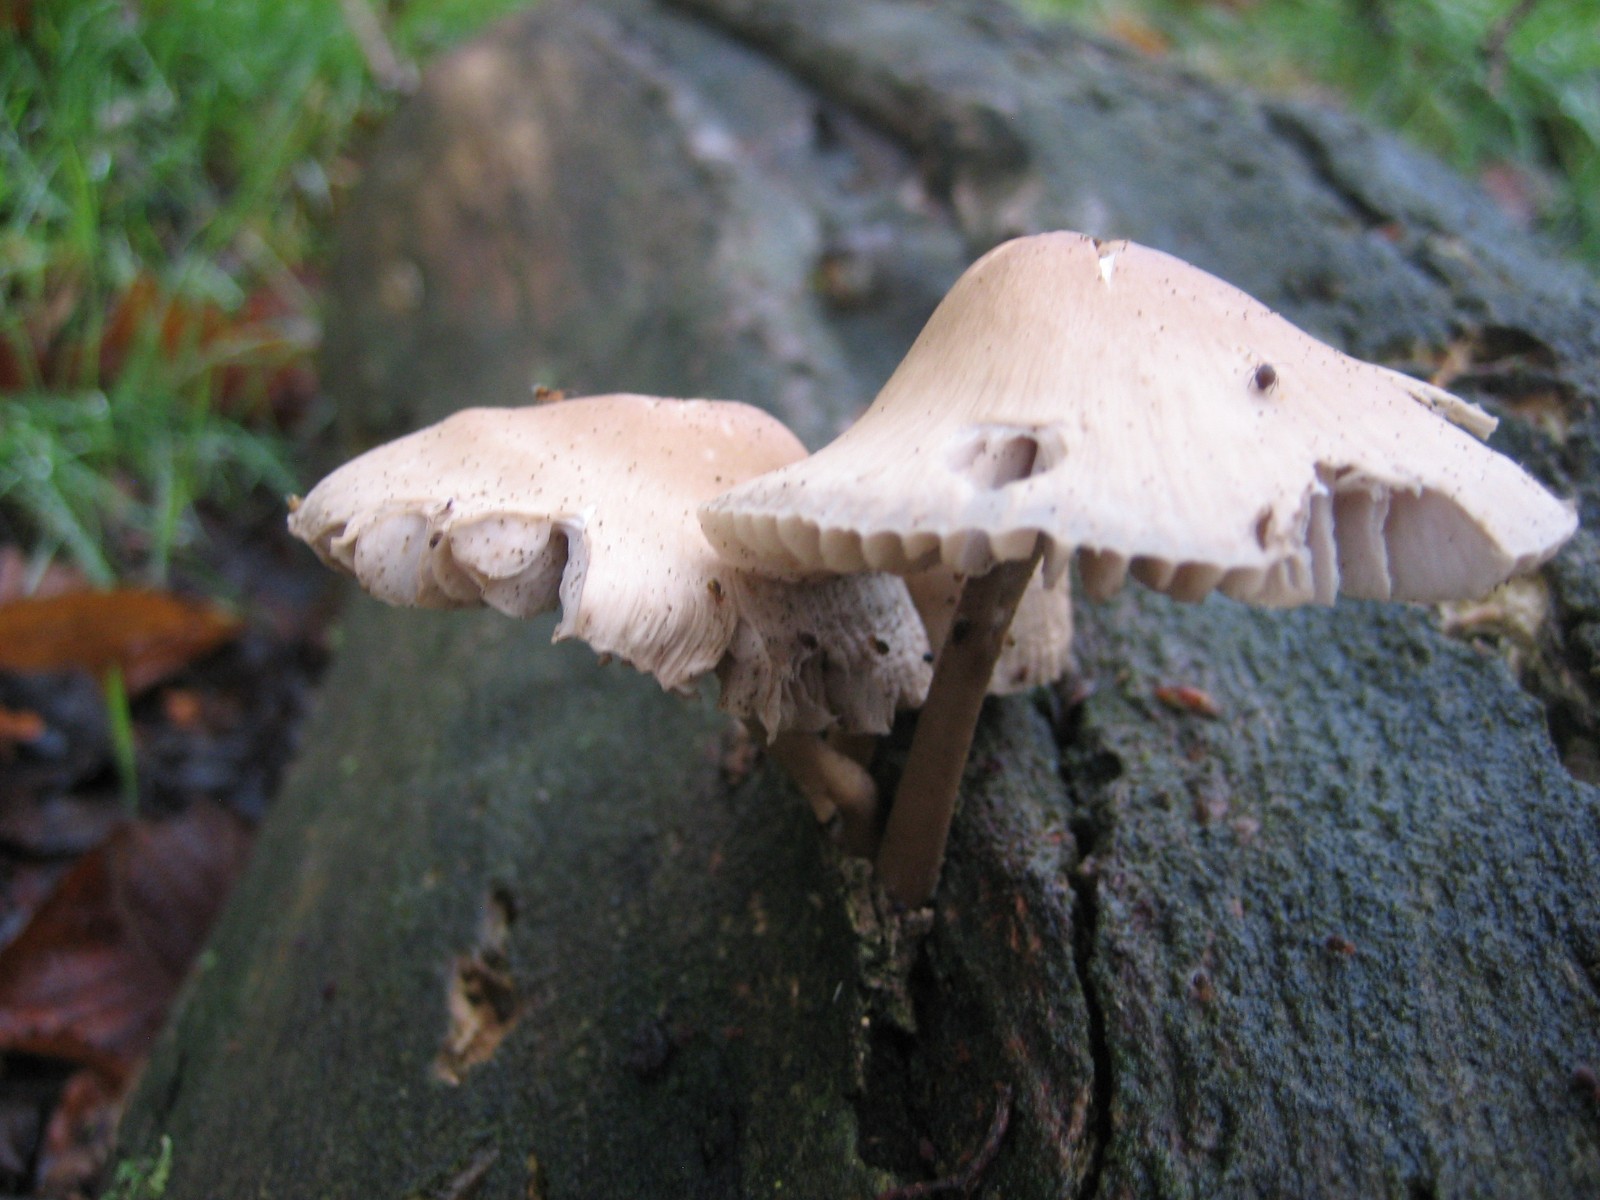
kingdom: Fungi
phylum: Basidiomycota
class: Agaricomycetes
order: Agaricales
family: Mycenaceae
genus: Mycena
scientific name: Mycena galericulata
